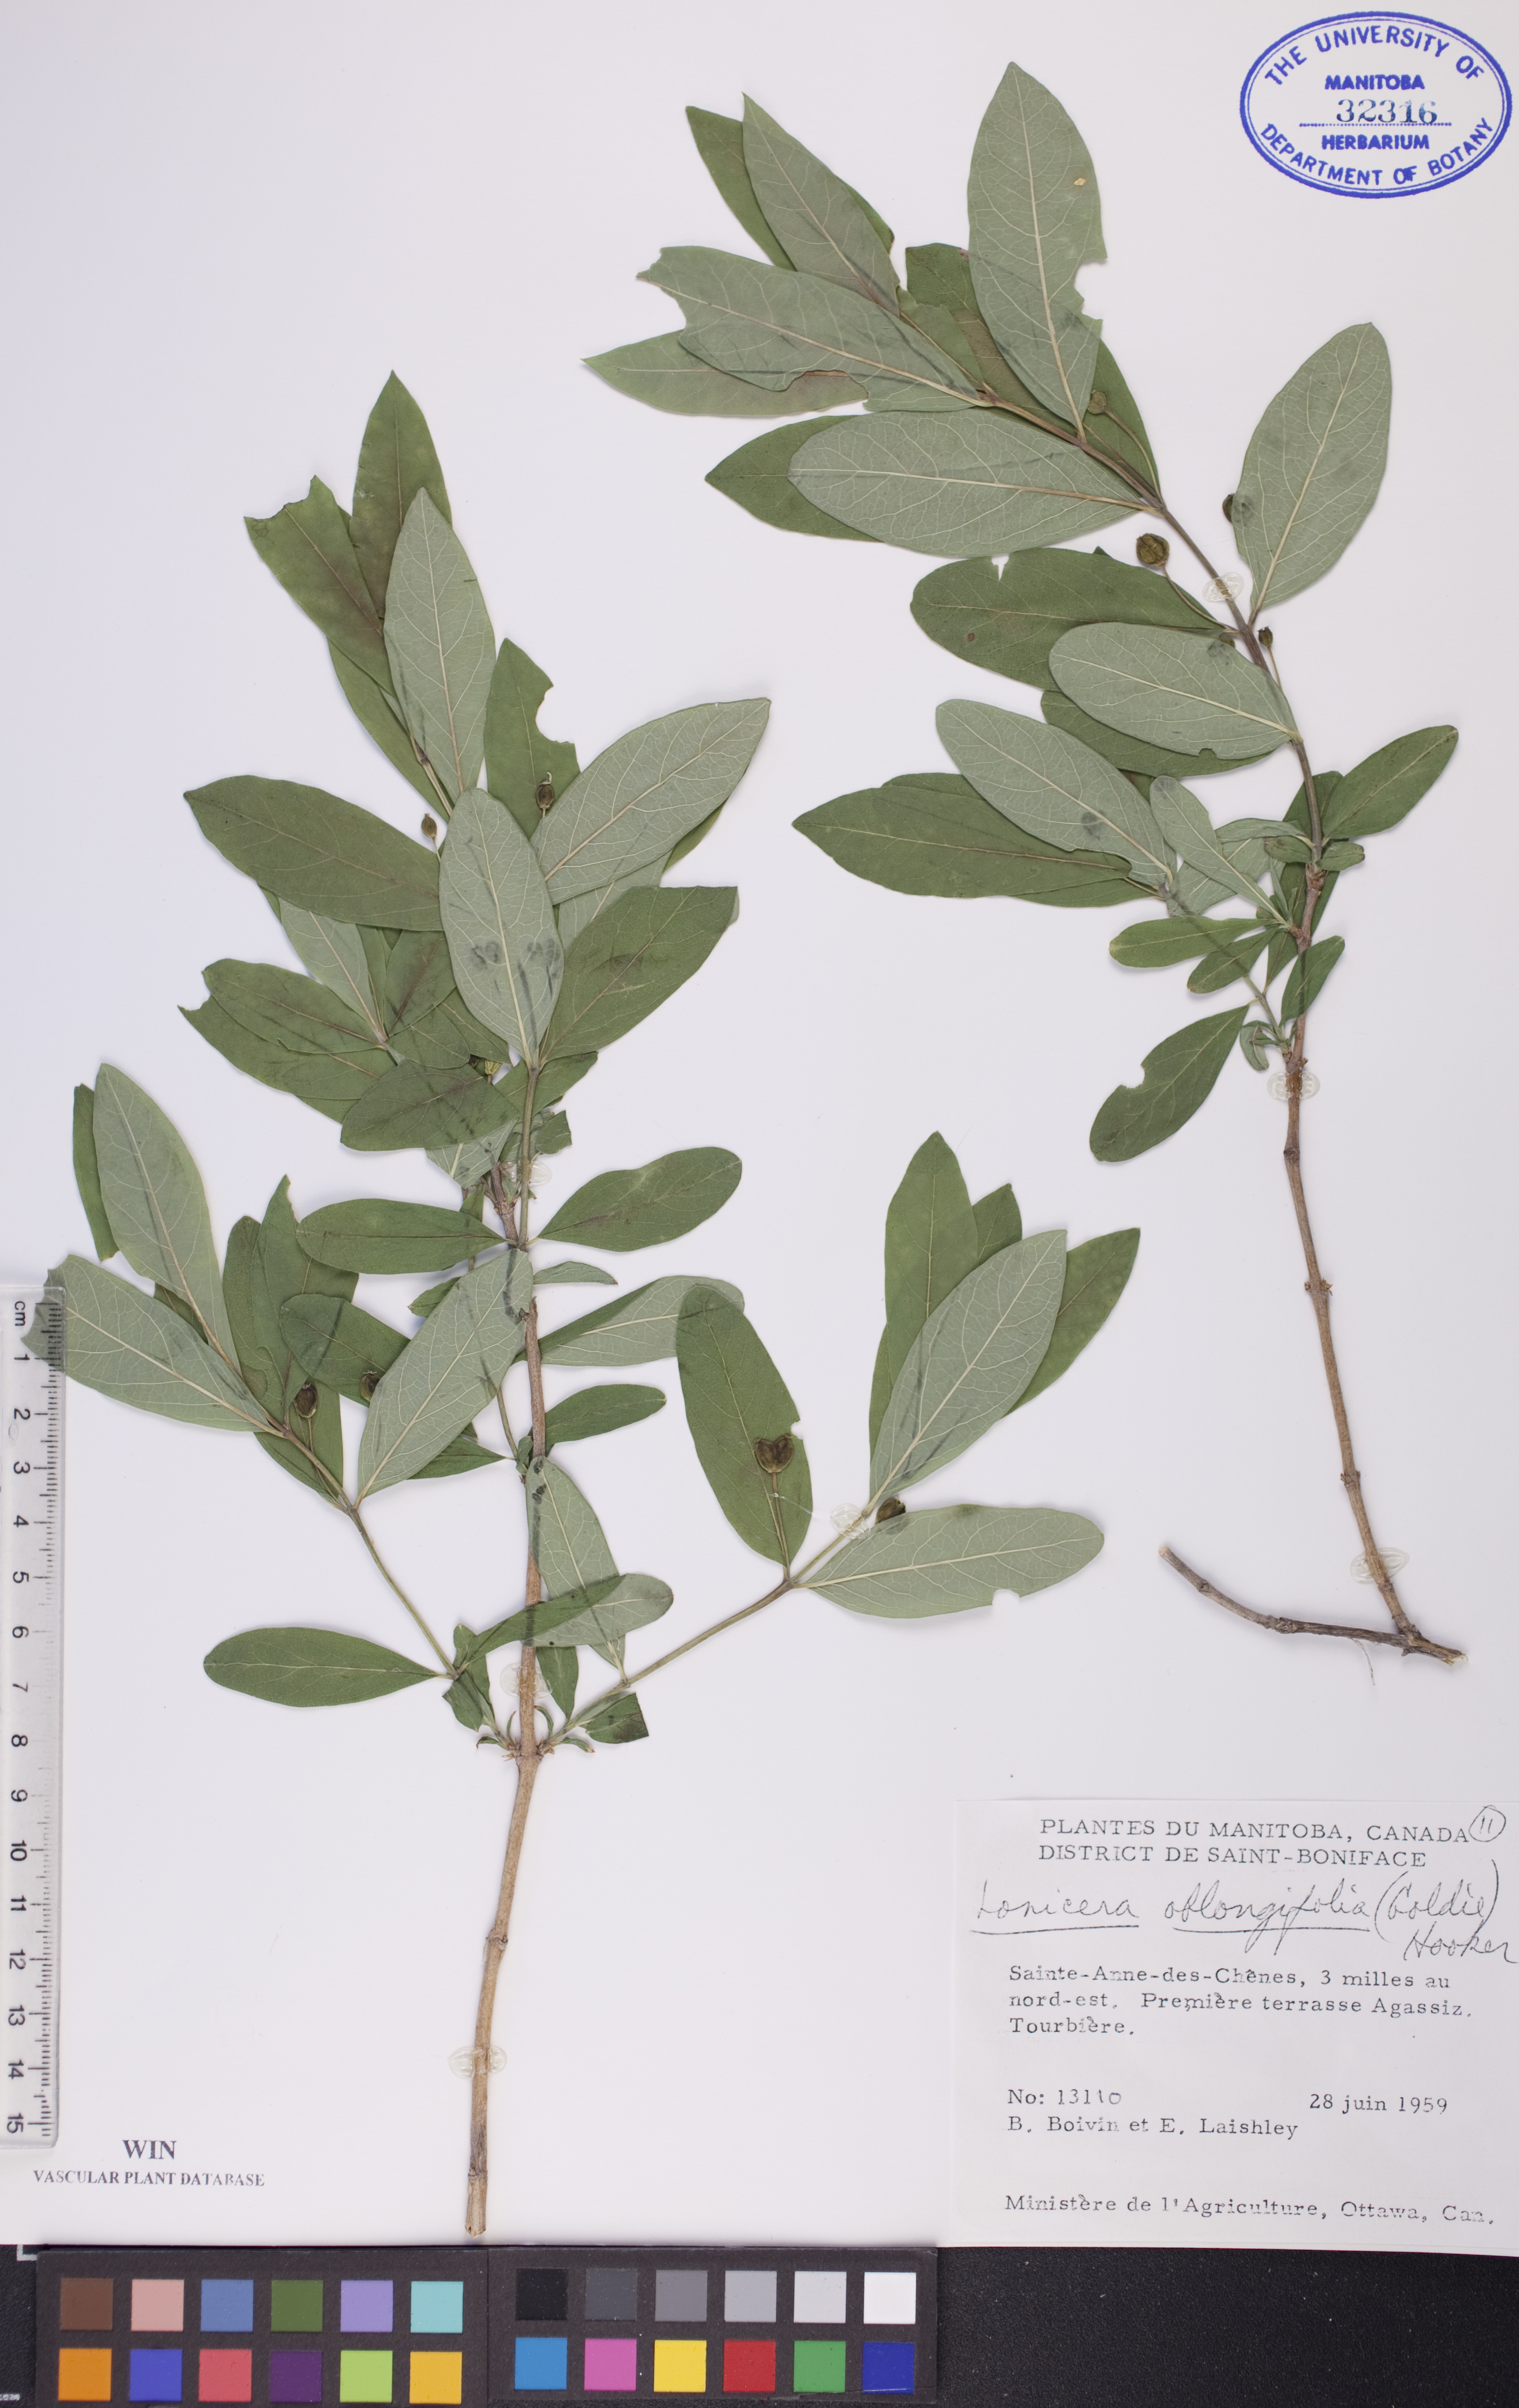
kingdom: Plantae
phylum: Tracheophyta
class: Magnoliopsida
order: Dipsacales
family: Caprifoliaceae
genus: Lonicera
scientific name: Lonicera oblongifolia
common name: Swamp fly honeysuckle
